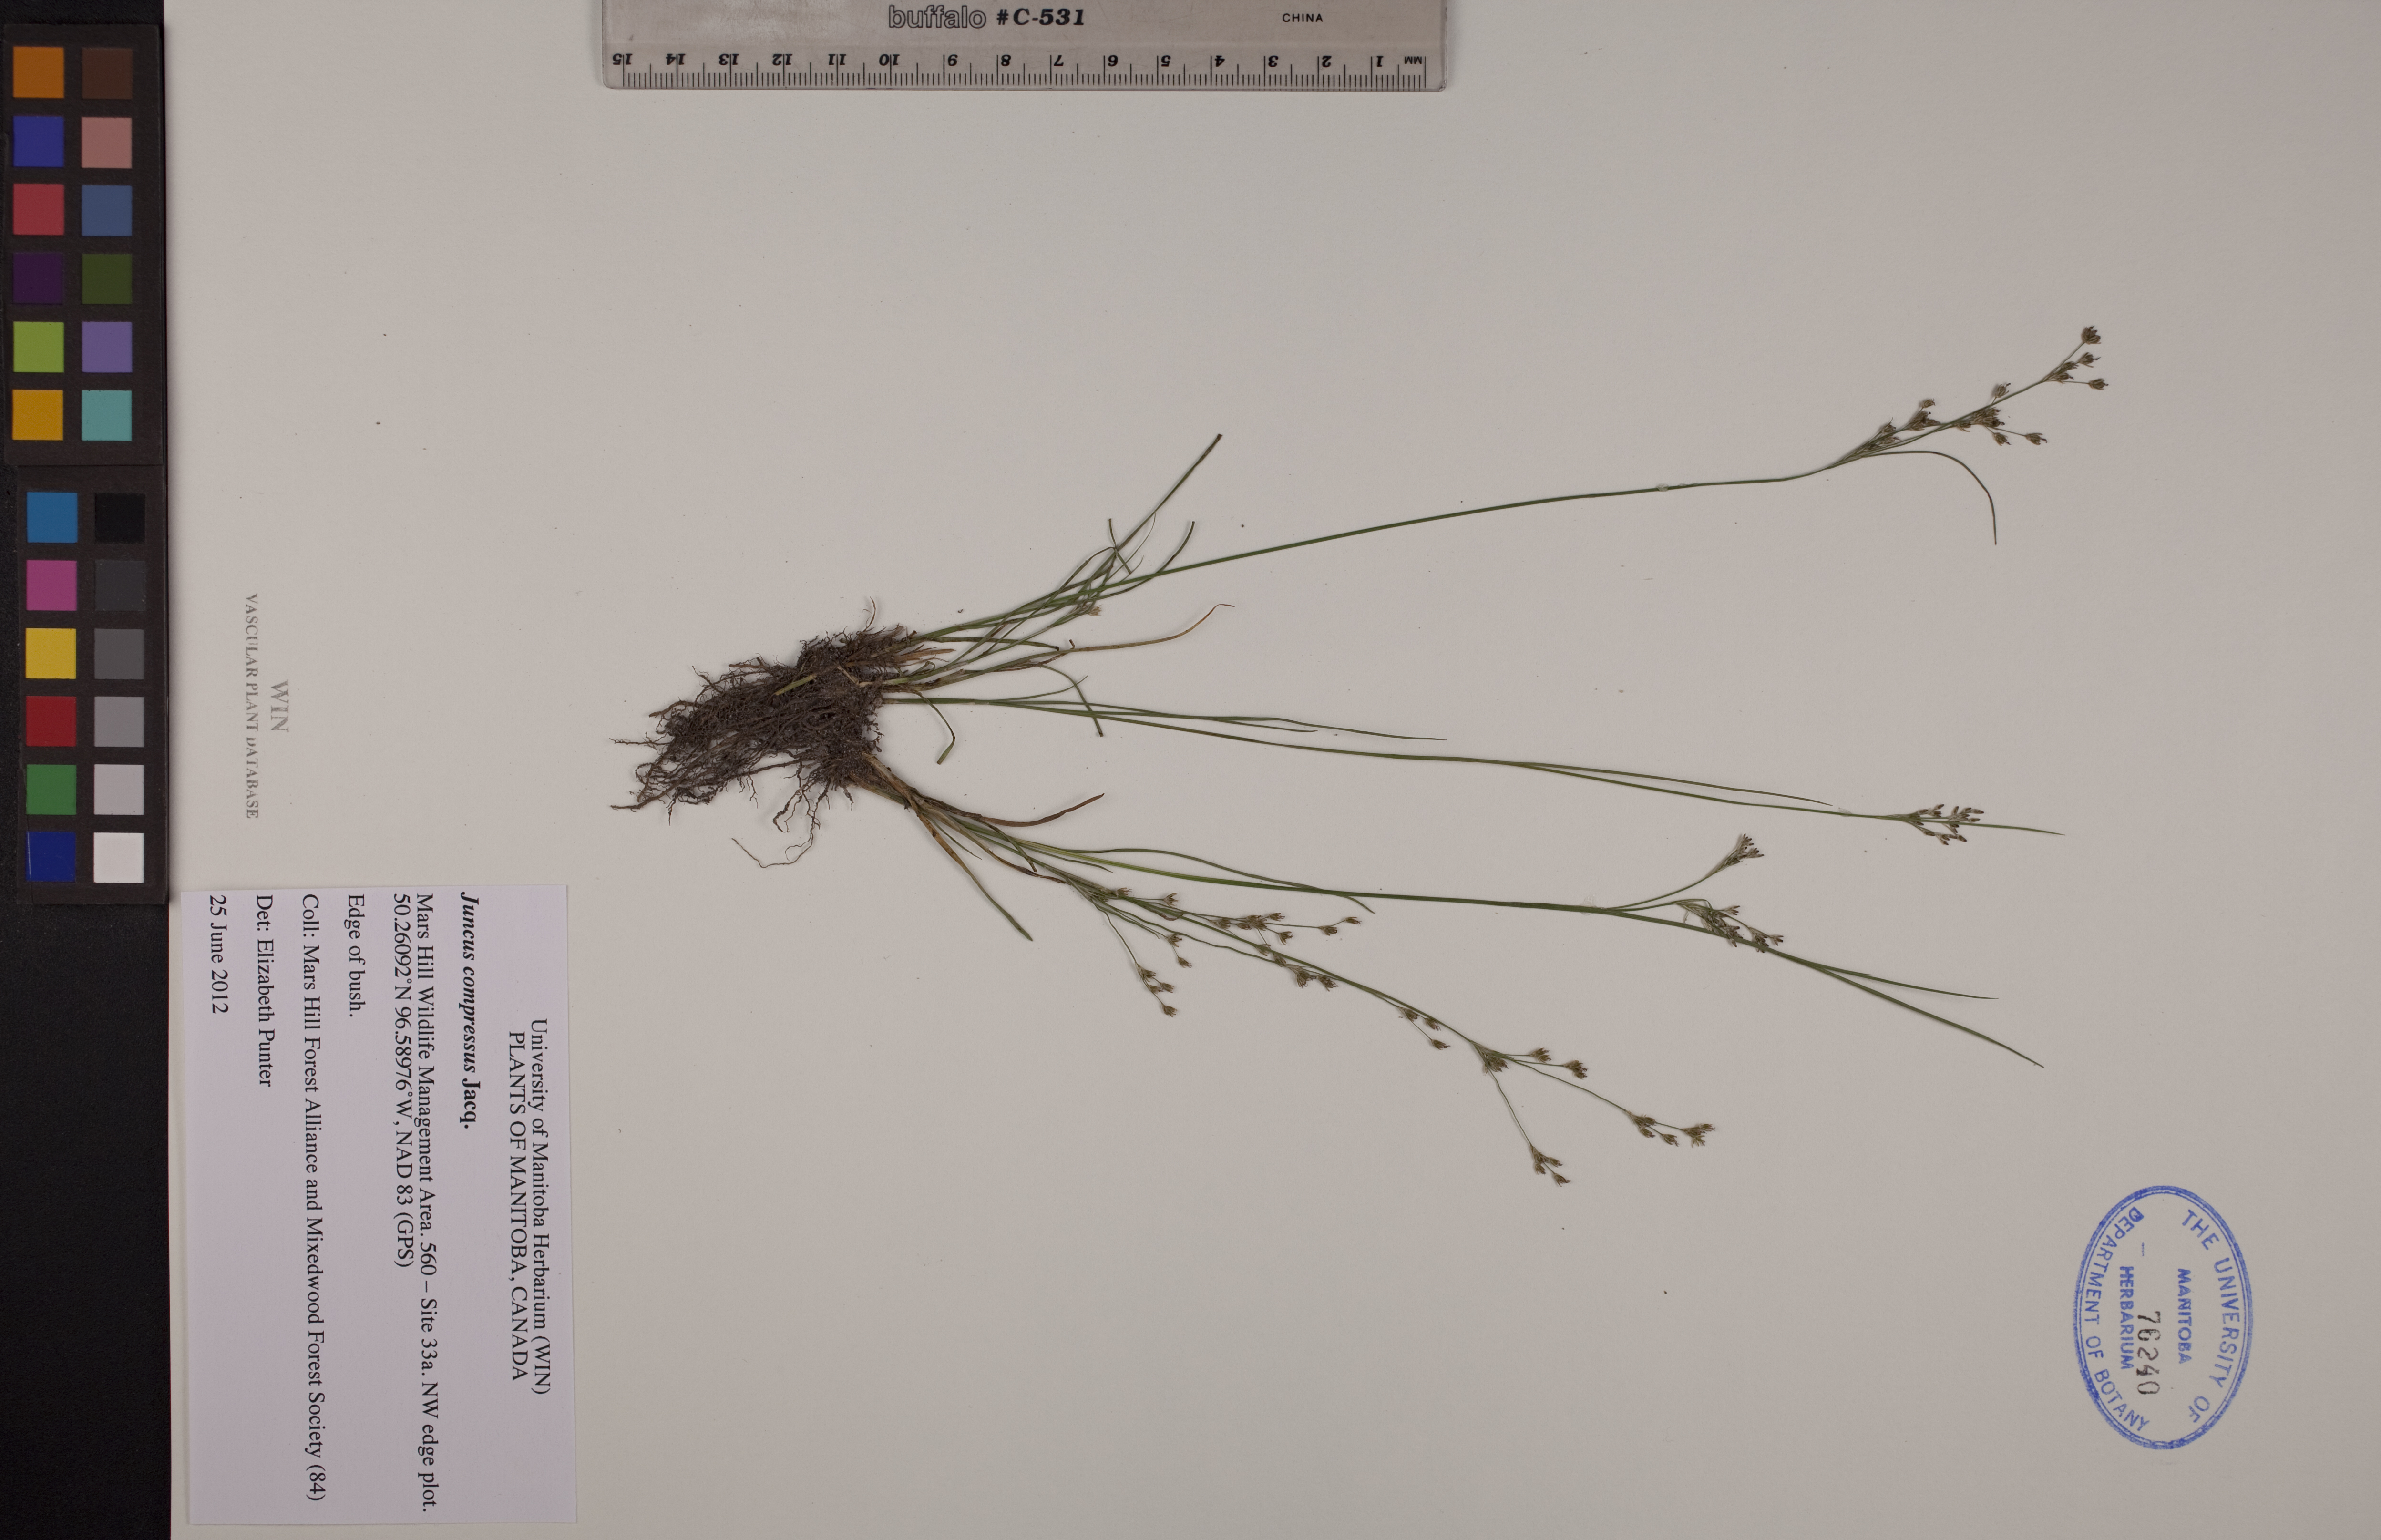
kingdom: Plantae
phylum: Tracheophyta
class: Liliopsida
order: Poales
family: Juncaceae
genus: Juncus
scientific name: Juncus compressus
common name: Round-fruited rush
